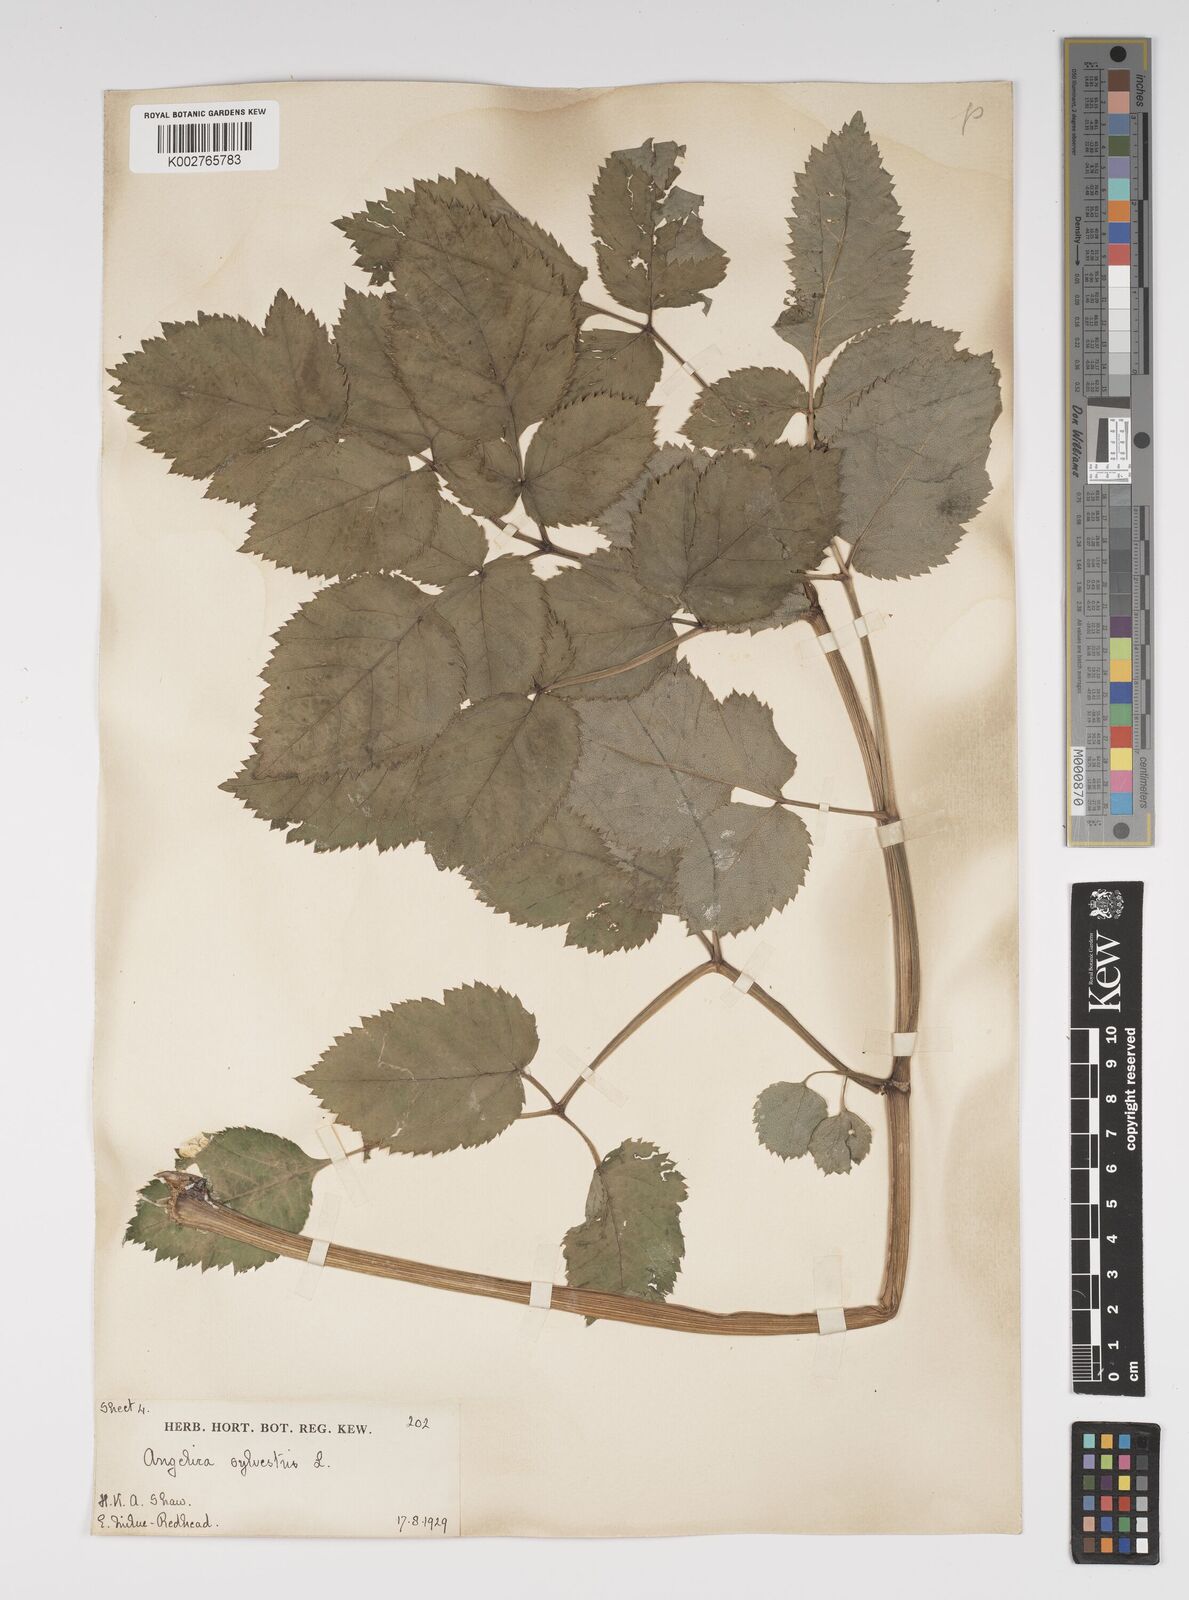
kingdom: Plantae
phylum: Tracheophyta
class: Magnoliopsida
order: Apiales
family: Apiaceae
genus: Angelica
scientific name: Angelica sylvestris
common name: Wild angelica
